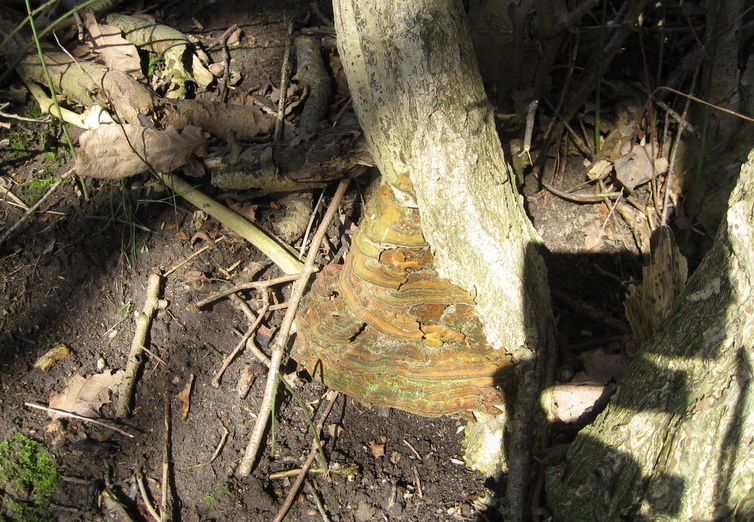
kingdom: Fungi
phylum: Basidiomycota
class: Agaricomycetes
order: Hymenochaetales
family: Hymenochaetaceae
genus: Phylloporia
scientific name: Phylloporia ribis
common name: ribs-ildporesvamp
